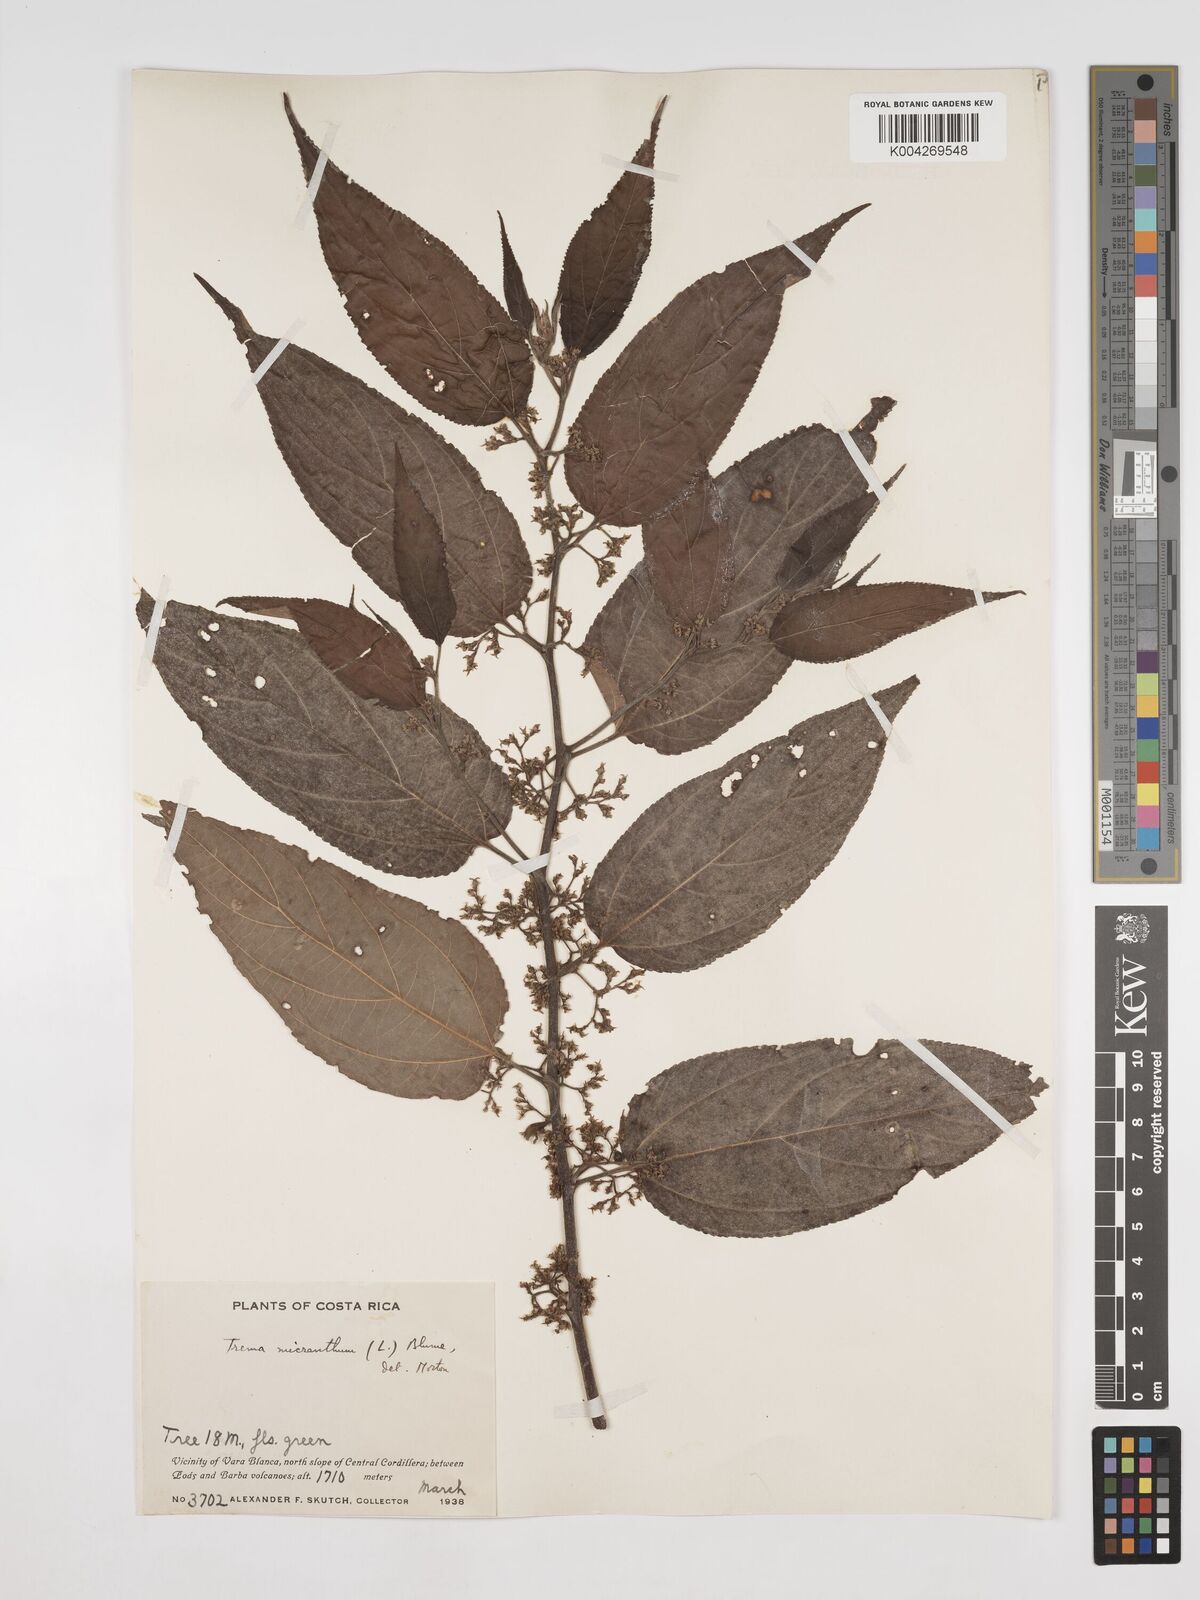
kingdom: Plantae
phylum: Tracheophyta
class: Magnoliopsida
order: Rosales
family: Cannabaceae
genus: Trema
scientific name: Trema micranthum
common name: Jamaican nettletree
